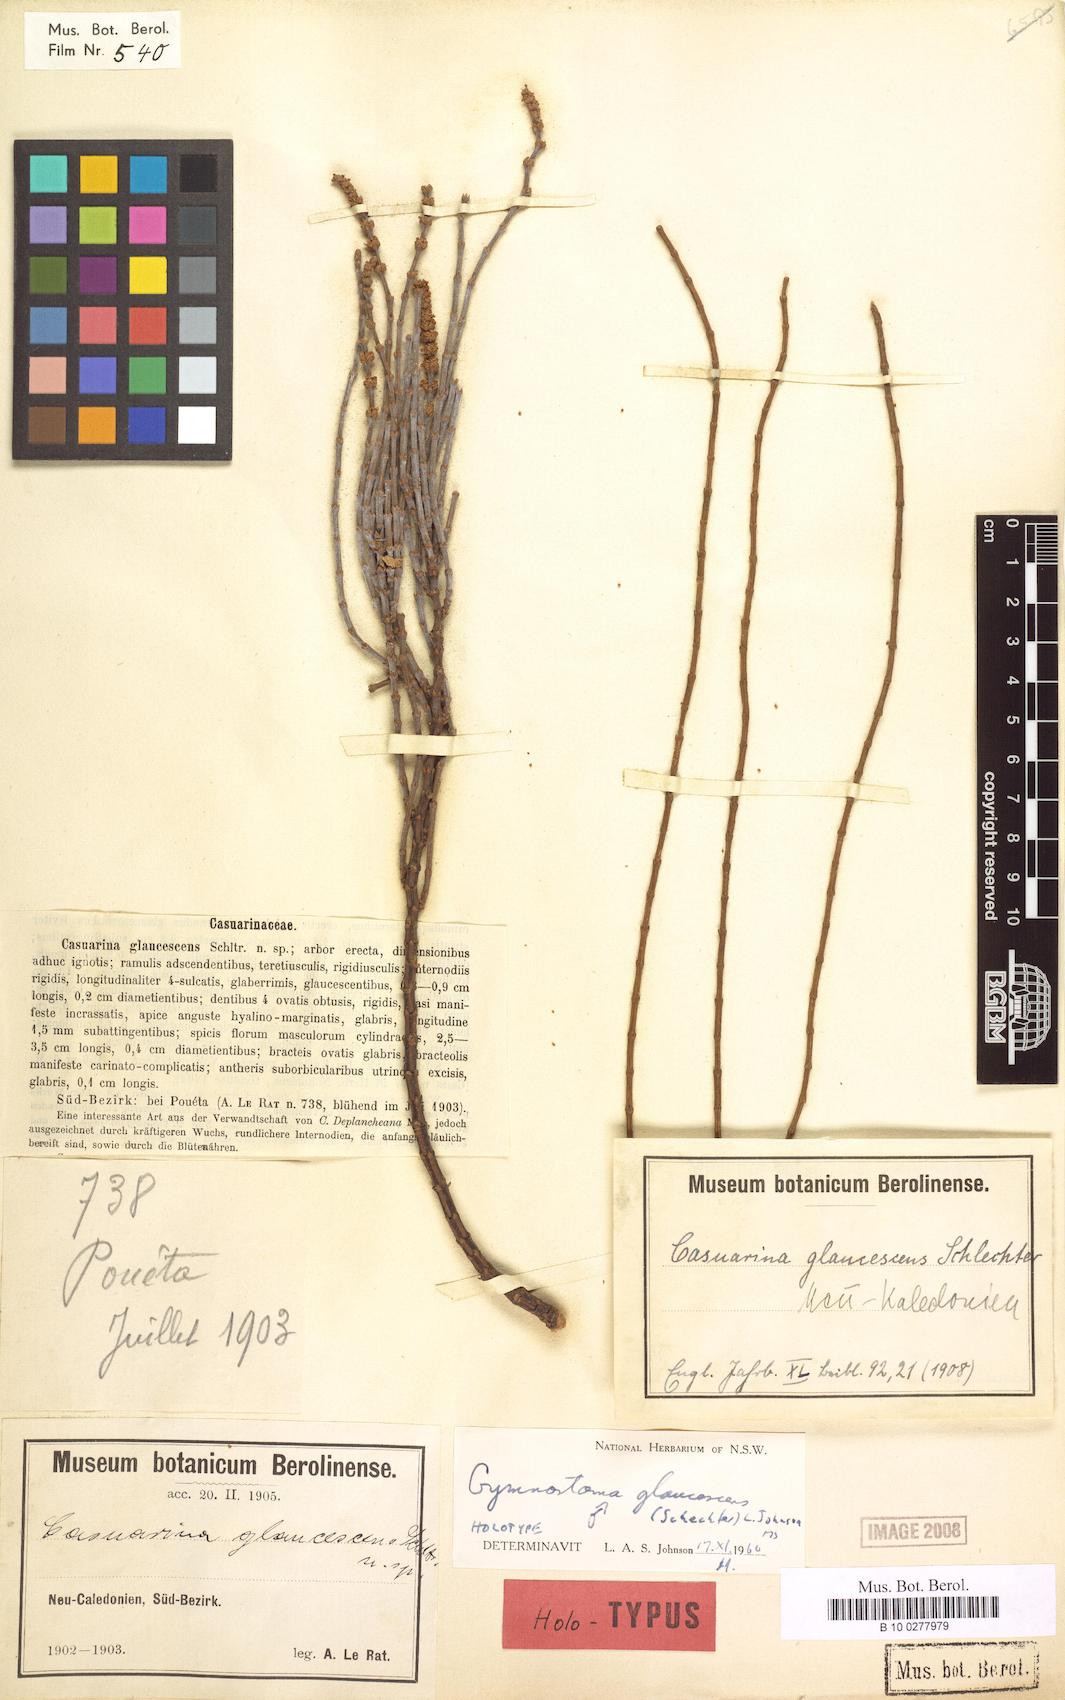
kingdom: Plantae
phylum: Tracheophyta
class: Magnoliopsida
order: Fagales
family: Casuarinaceae
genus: Gymnostoma
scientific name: Gymnostoma glaucescens
